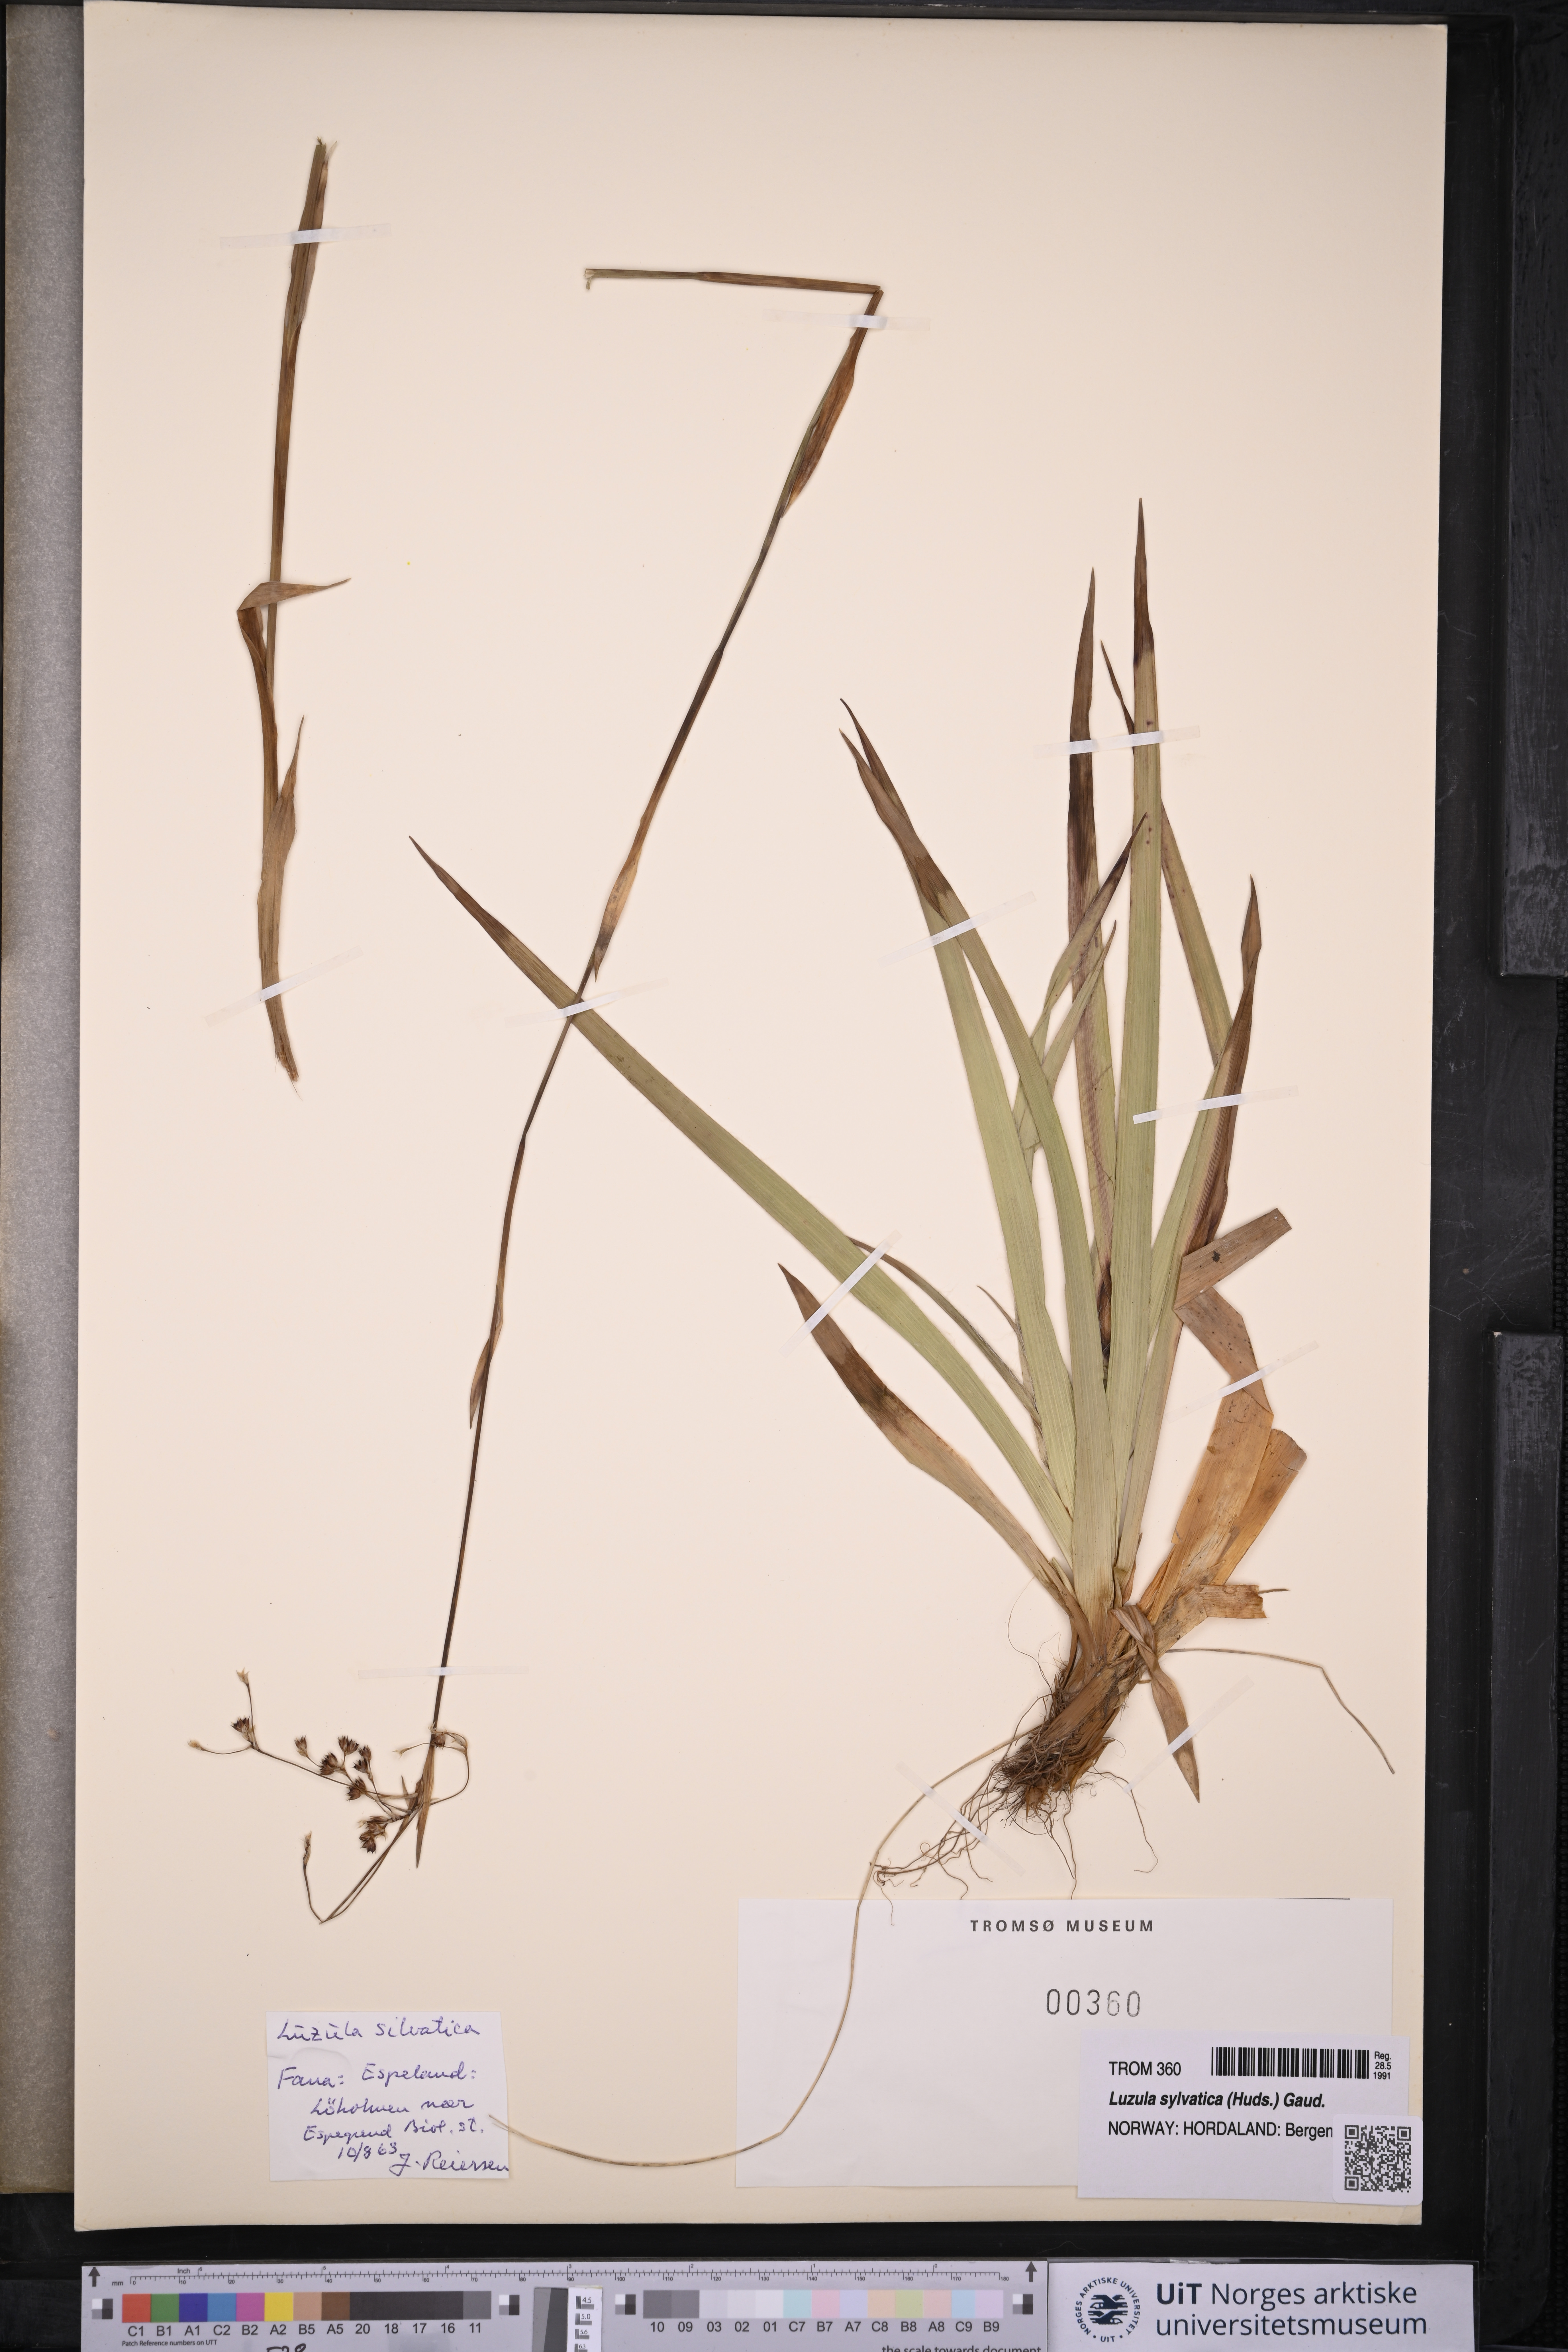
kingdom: Plantae
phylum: Tracheophyta
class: Liliopsida
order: Poales
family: Juncaceae
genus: Luzula
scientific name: Luzula sylvatica
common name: Great wood-rush
